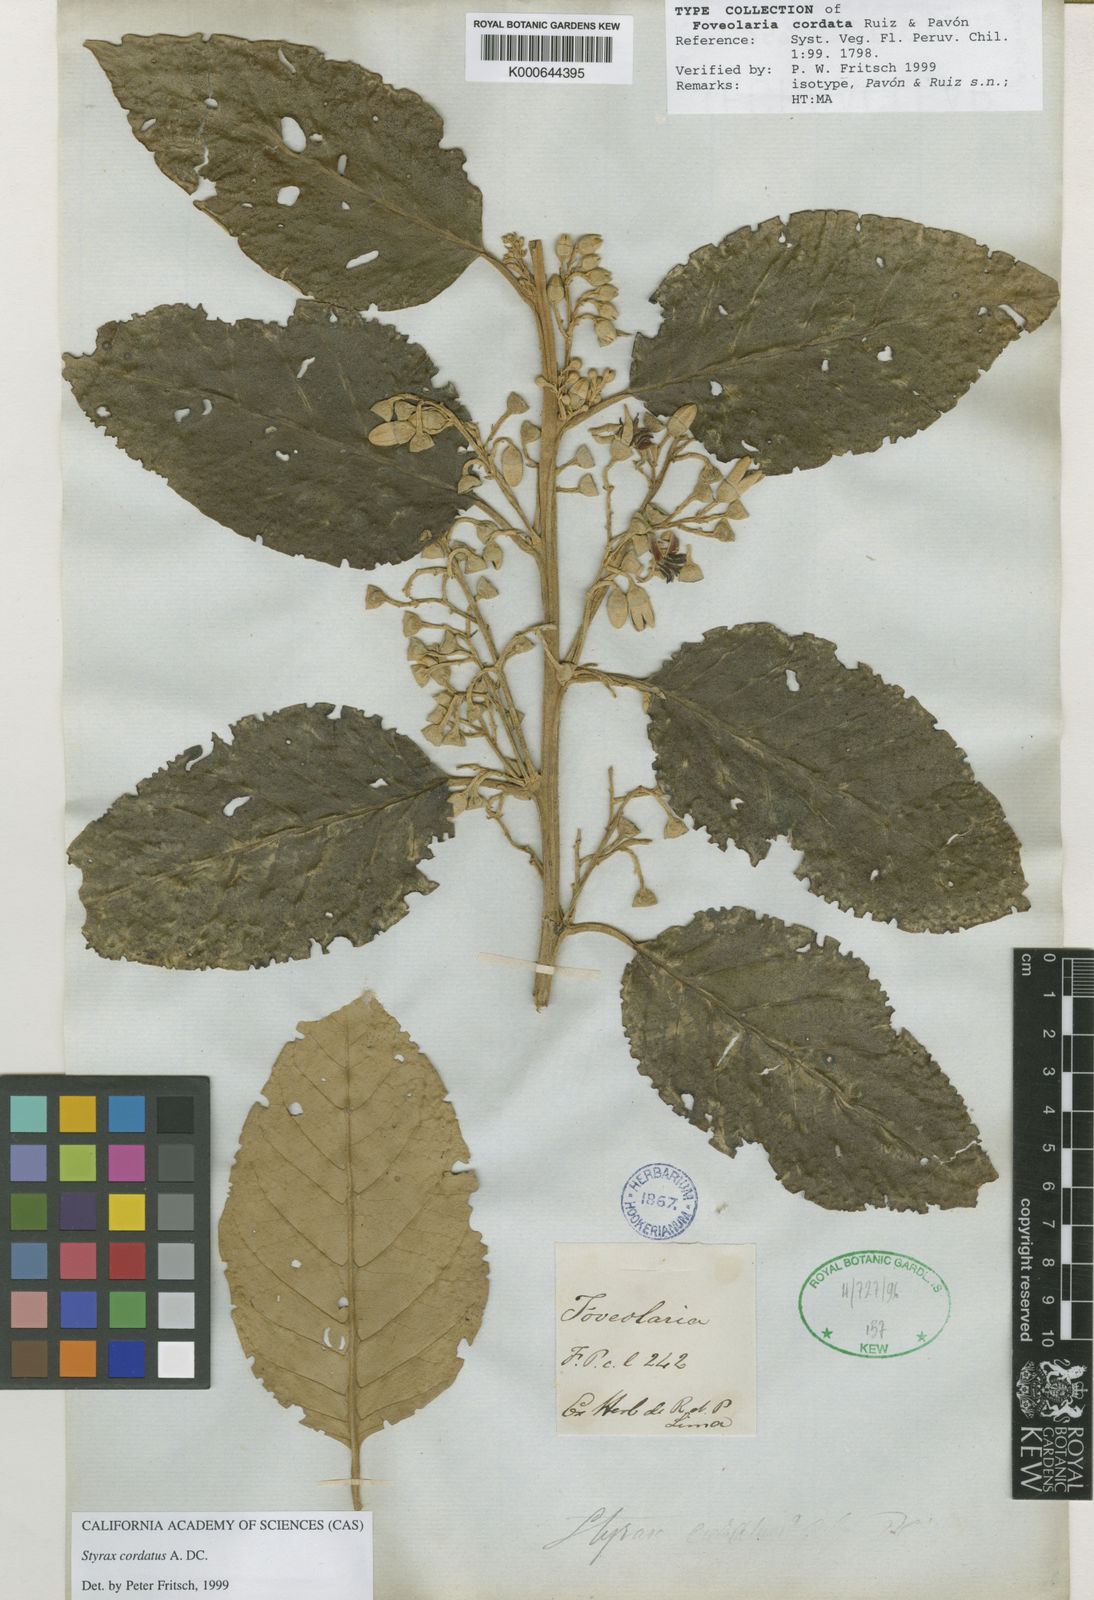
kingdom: Plantae
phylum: Tracheophyta
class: Magnoliopsida
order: Ericales
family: Styracaceae
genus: Styrax
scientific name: Styrax pavonii
